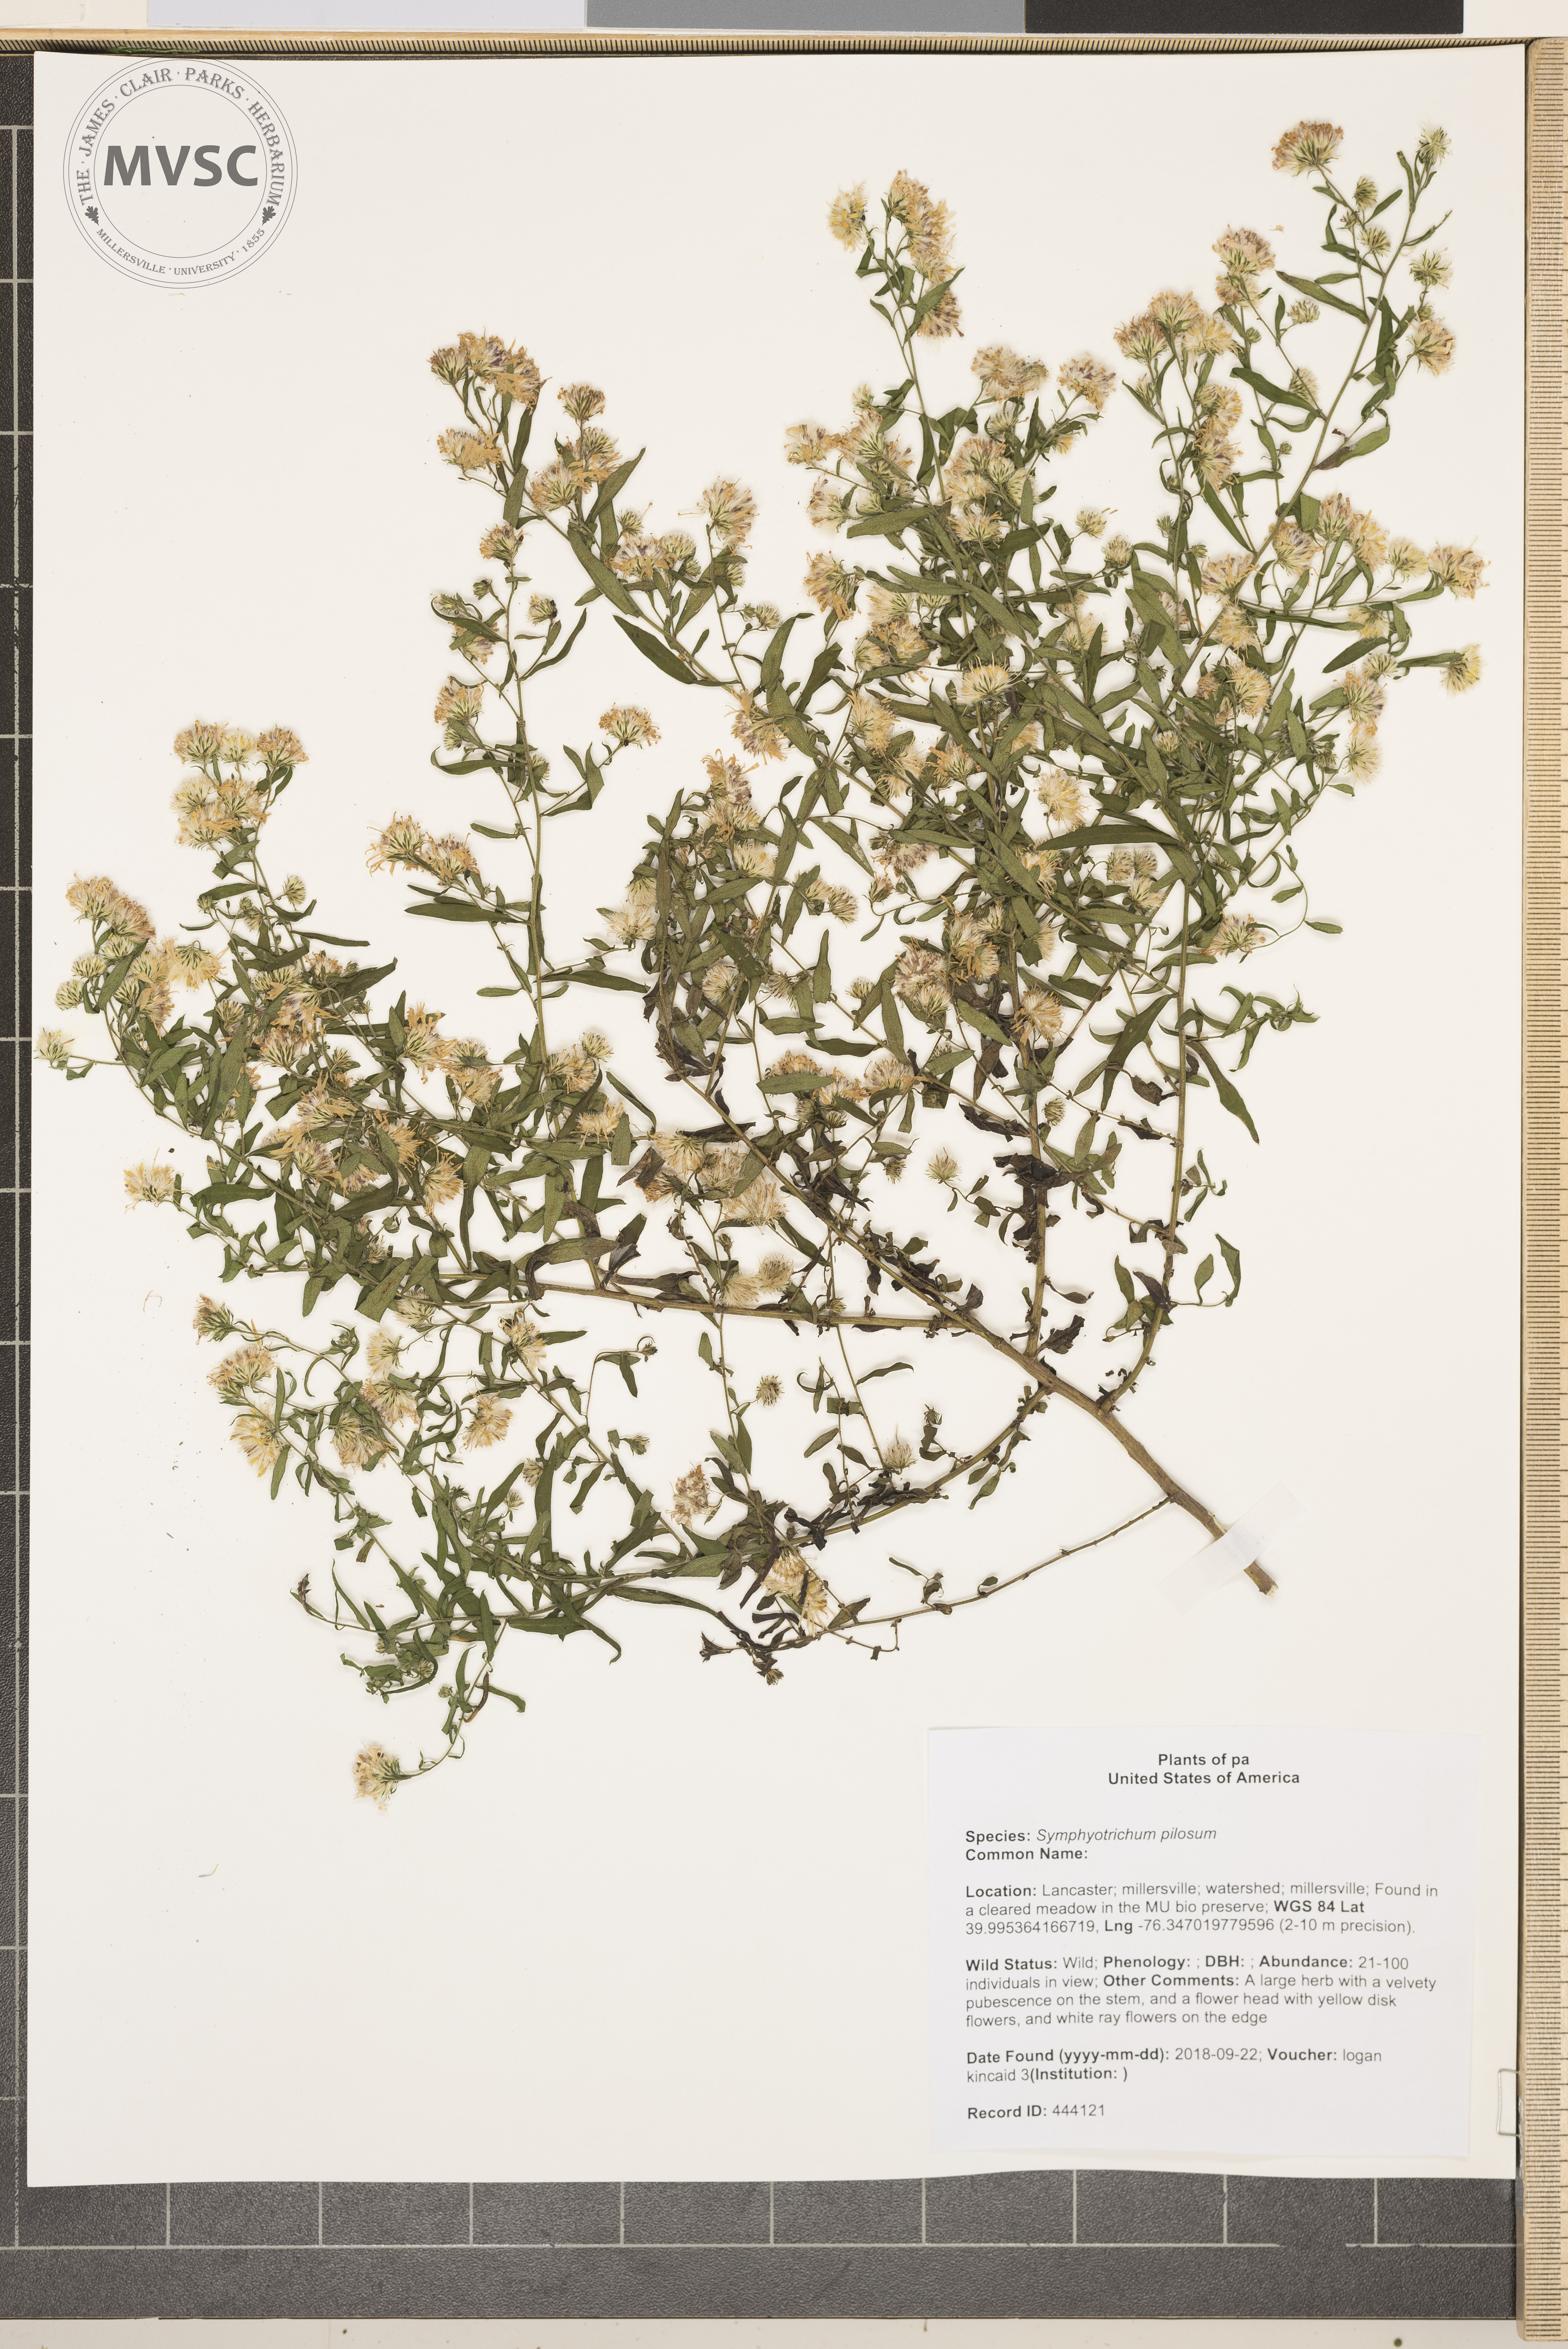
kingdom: Plantae
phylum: Tracheophyta
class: Magnoliopsida
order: Asterales
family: Asteraceae
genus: Symphyotrichum
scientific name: Symphyotrichum pilosum
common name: aster
